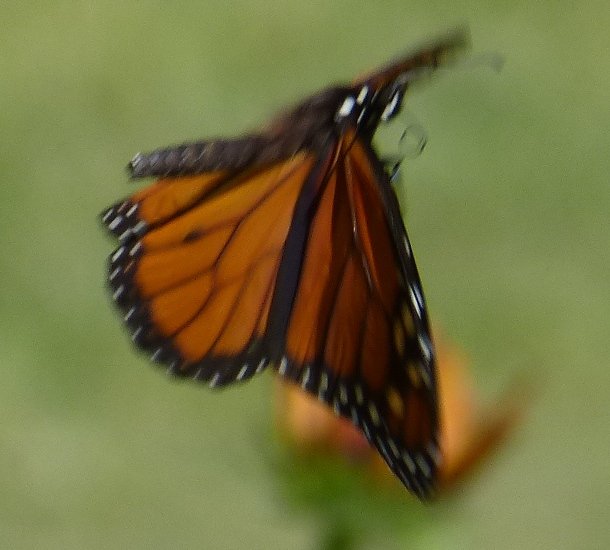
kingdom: Animalia
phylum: Arthropoda
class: Insecta
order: Lepidoptera
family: Nymphalidae
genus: Danaus
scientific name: Danaus plexippus
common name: Monarch
